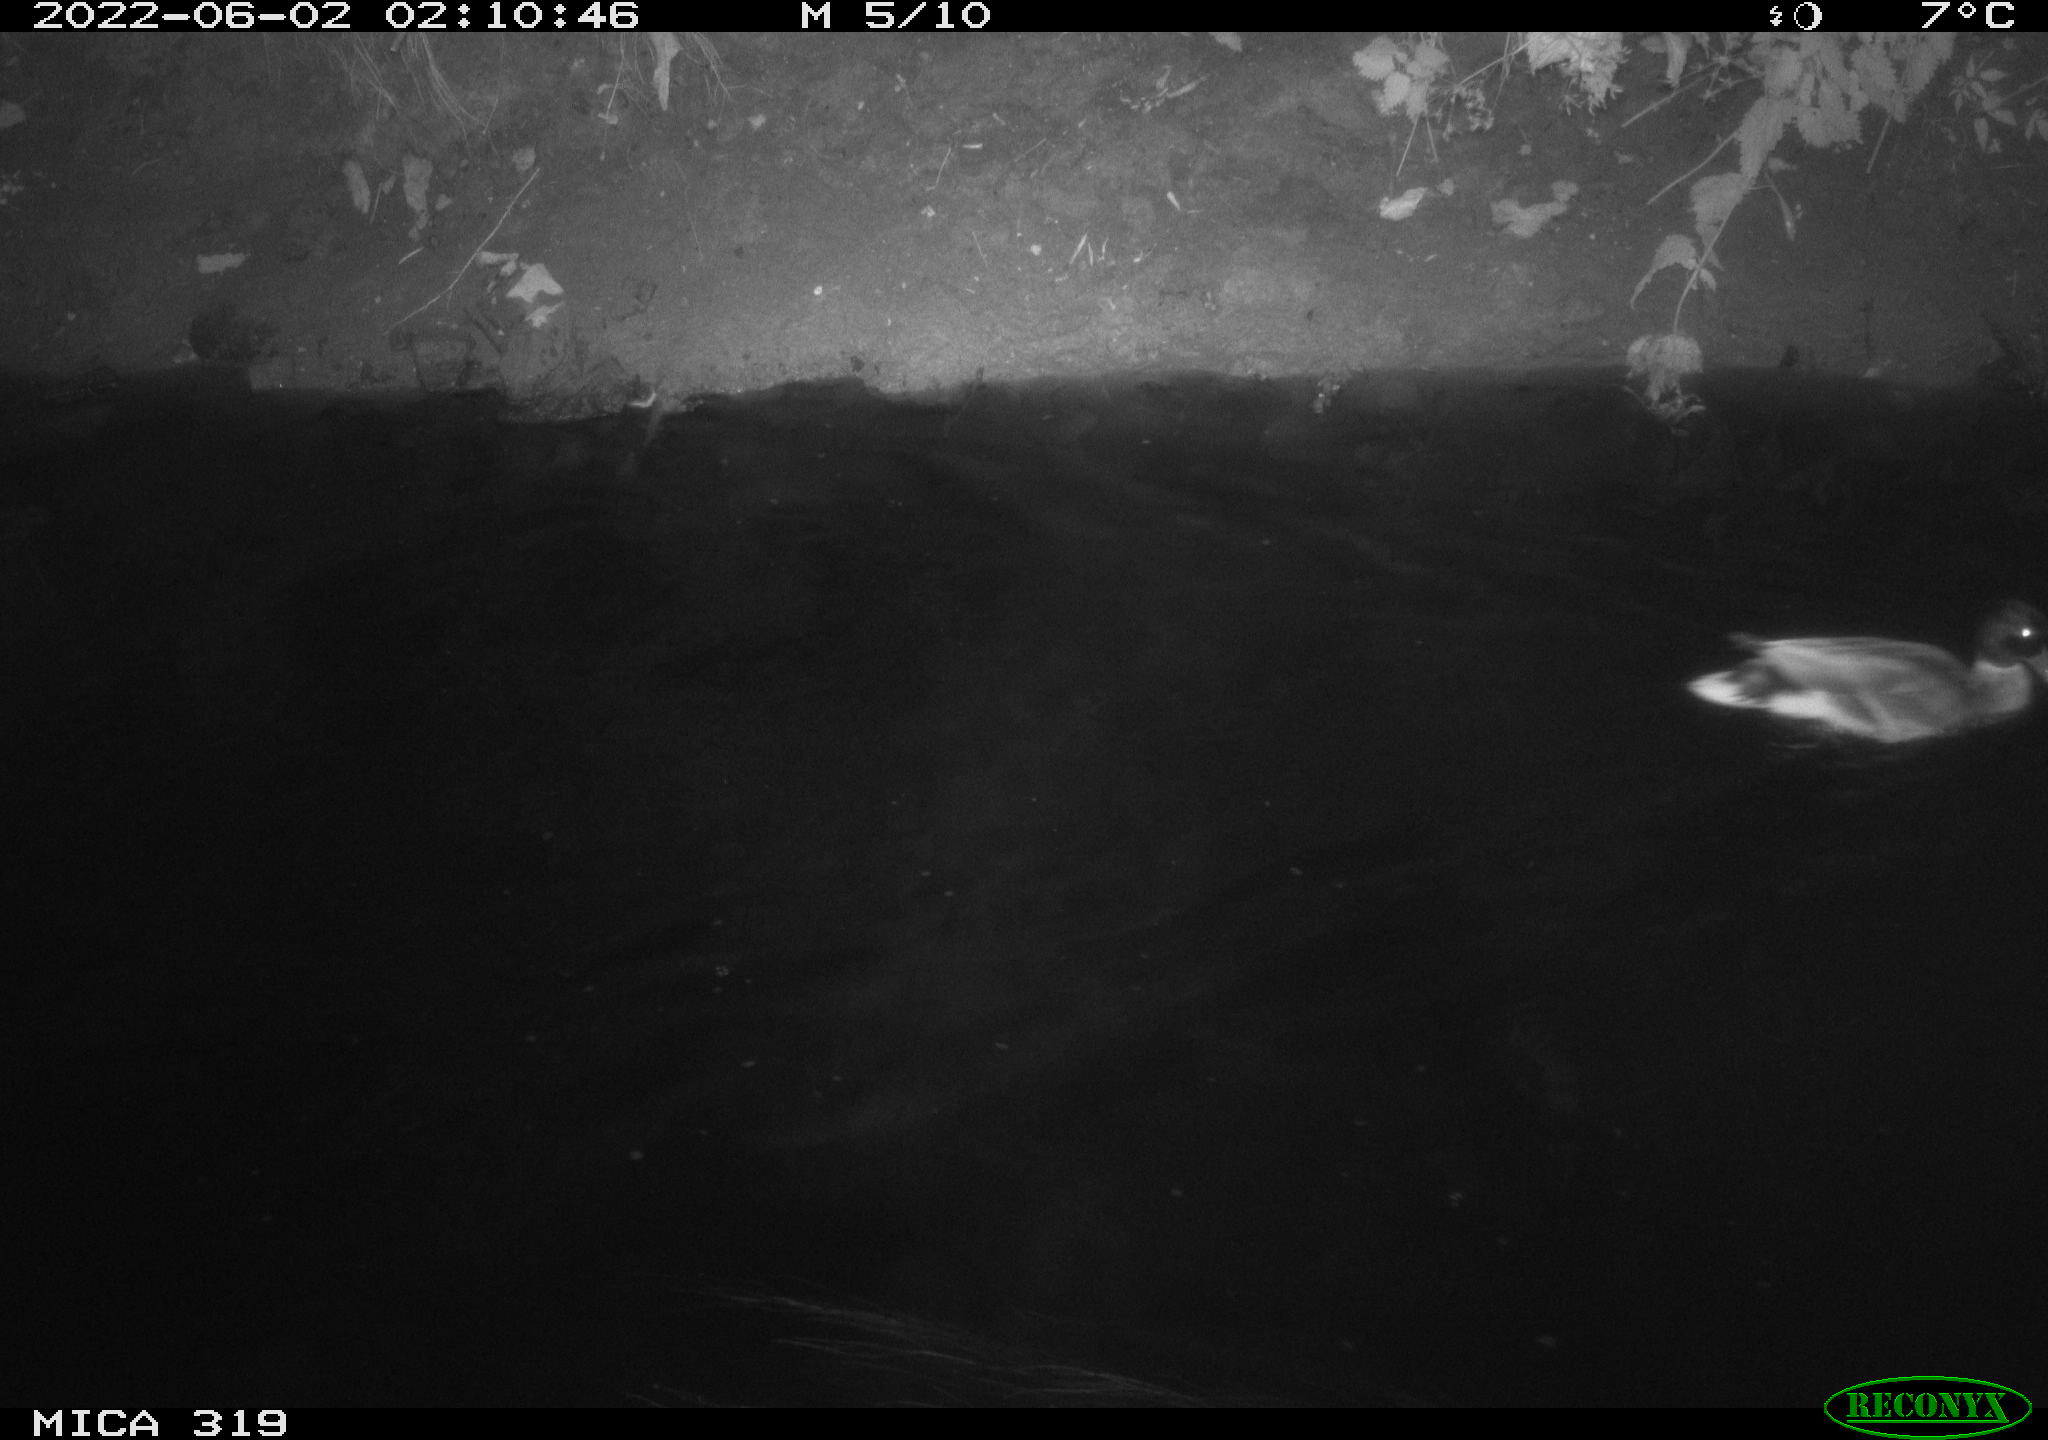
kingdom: Animalia
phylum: Chordata
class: Aves
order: Anseriformes
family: Anatidae
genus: Anas
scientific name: Anas
